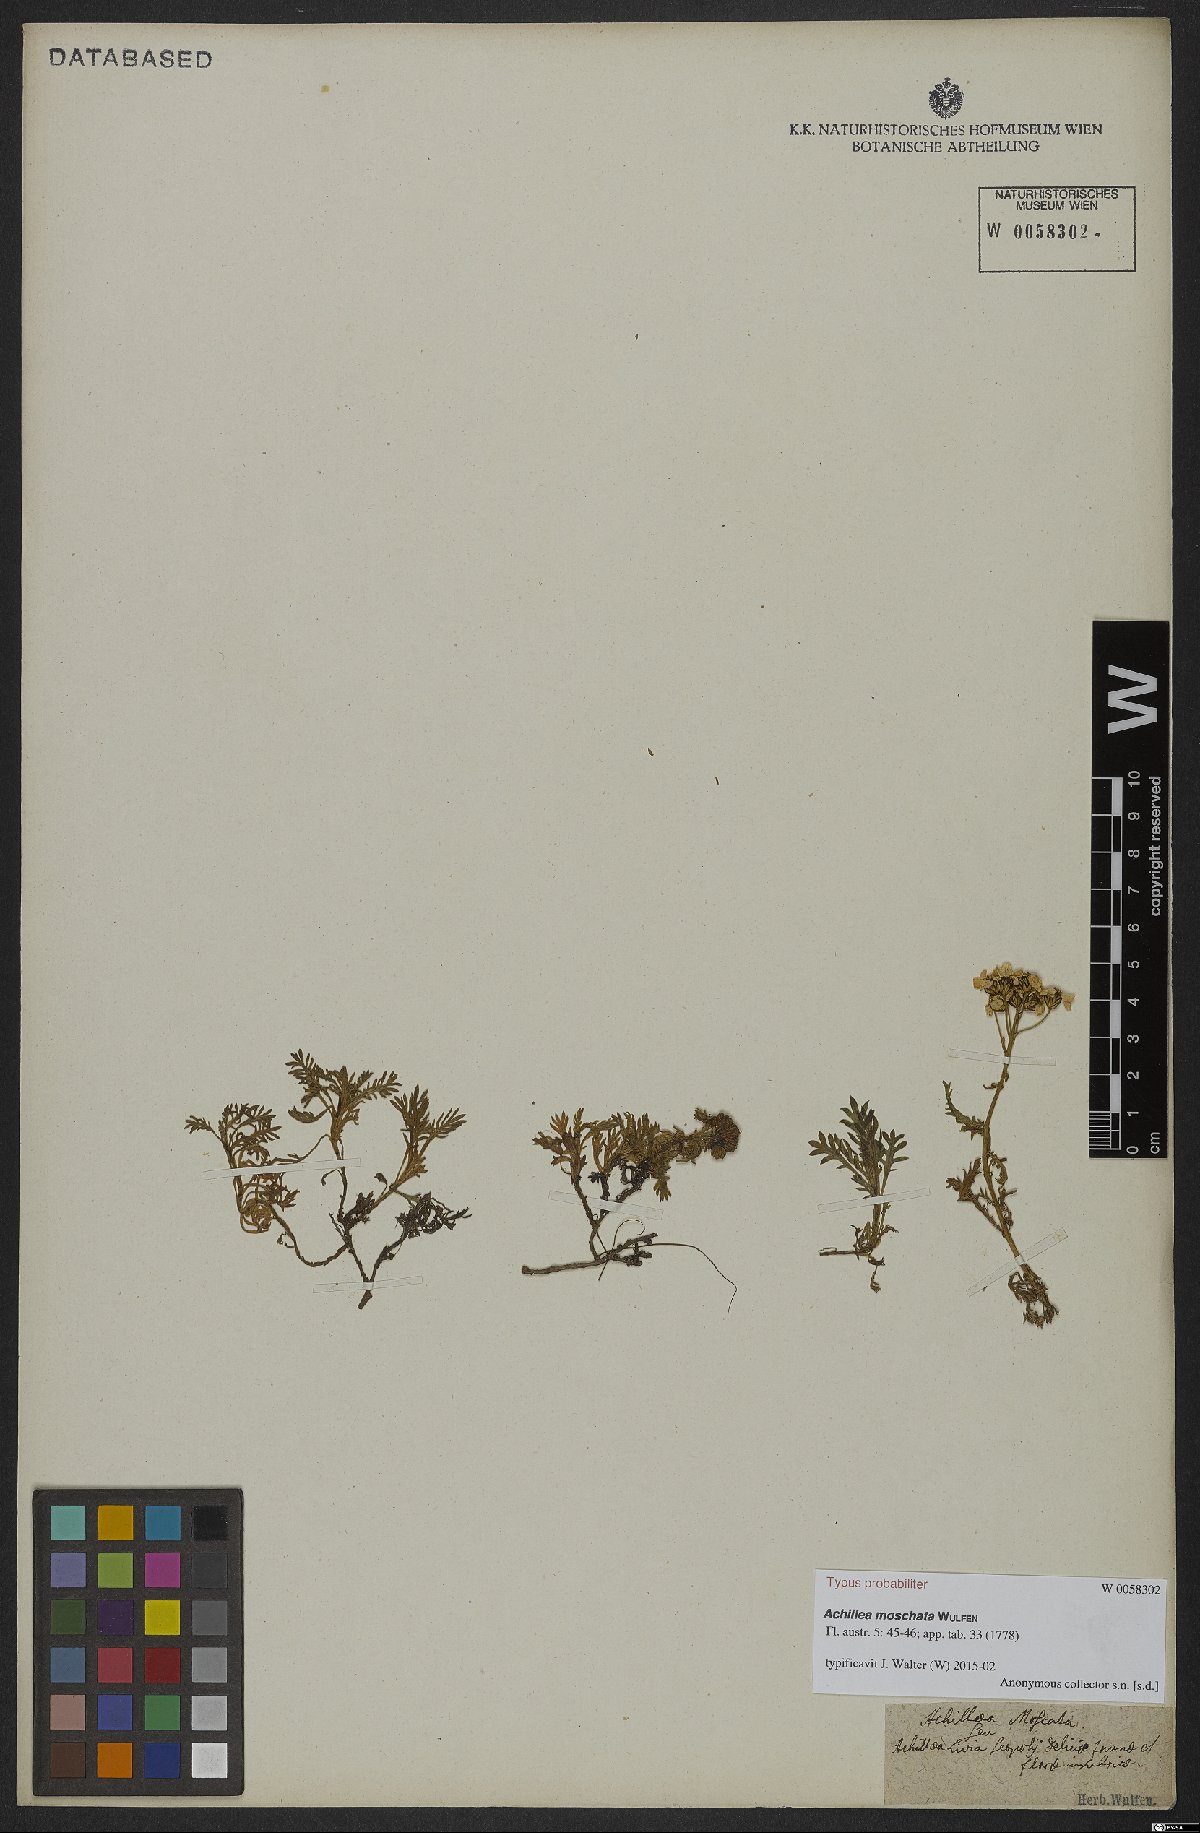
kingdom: Plantae
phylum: Tracheophyta
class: Magnoliopsida
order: Asterales
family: Asteraceae
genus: Achillea
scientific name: Achillea erba-rotta
